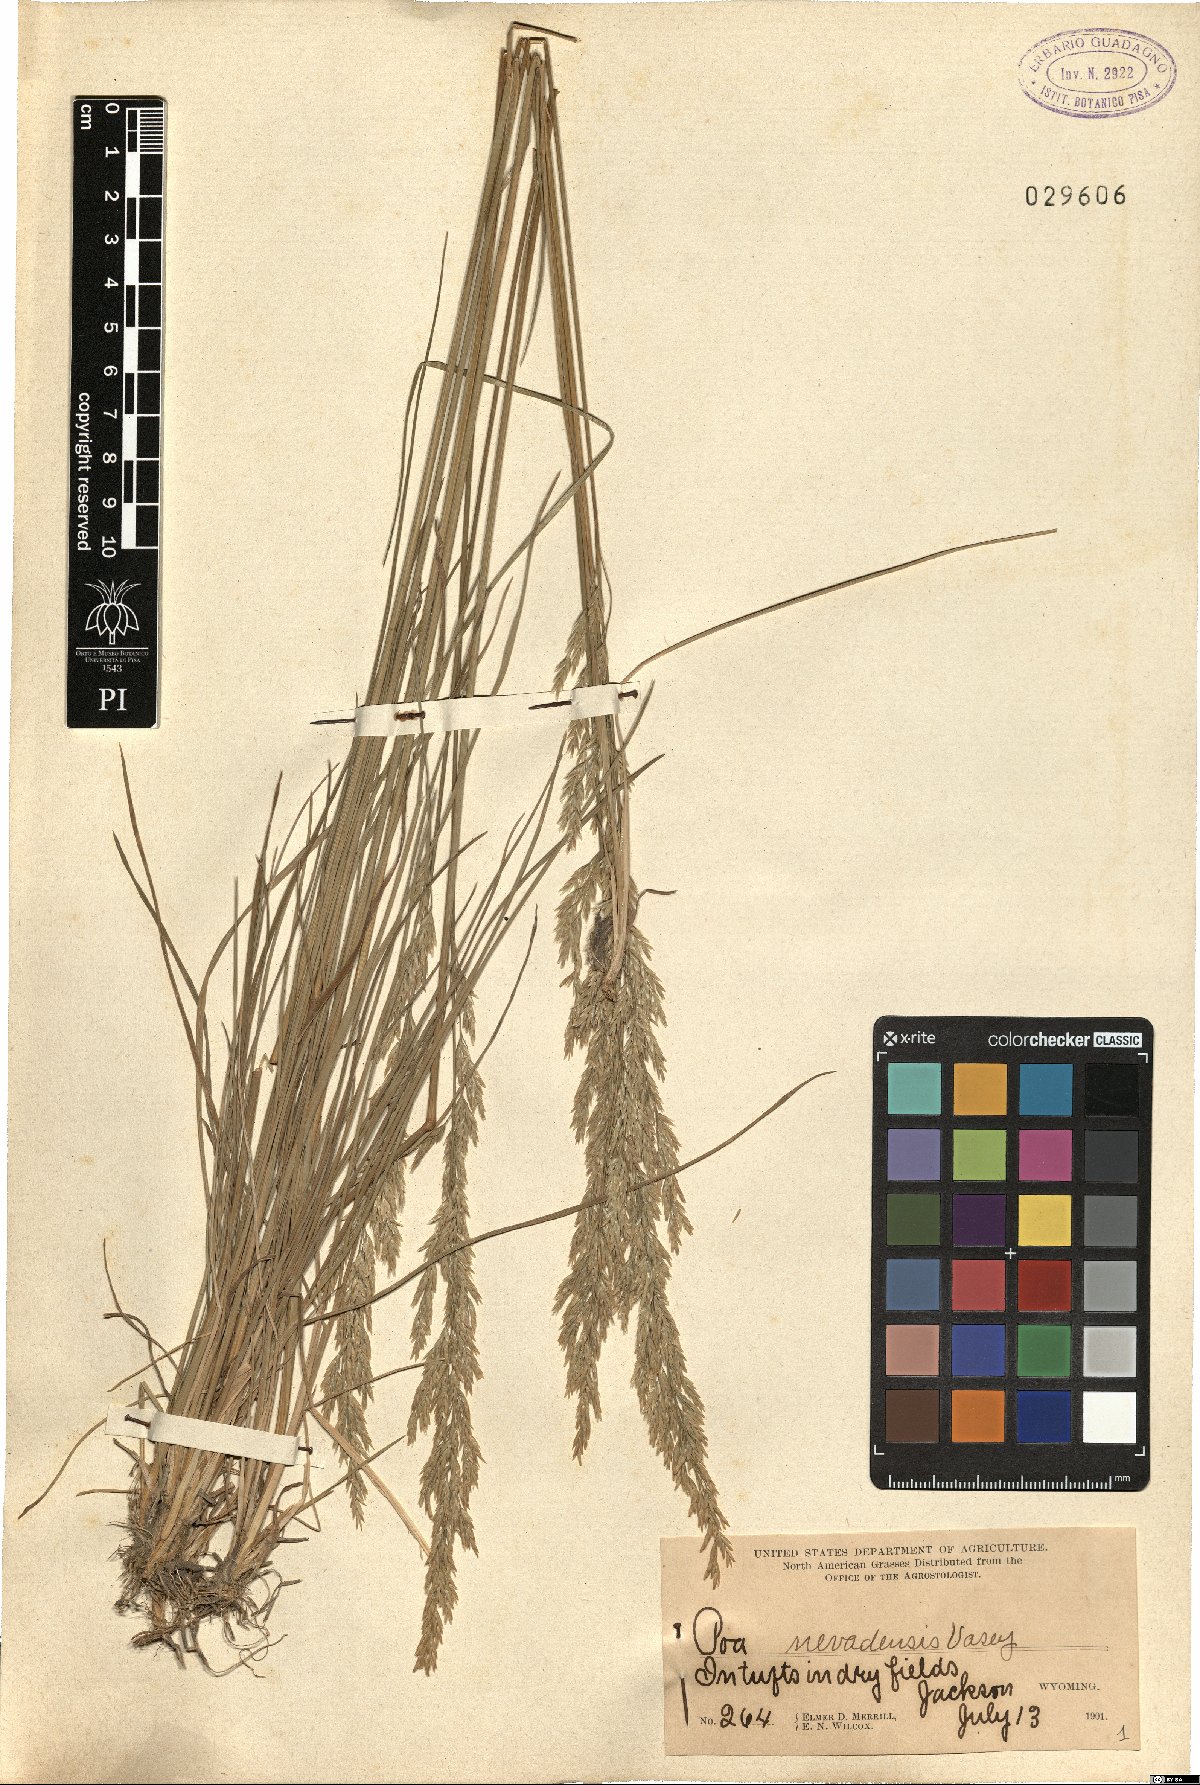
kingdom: Plantae
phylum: Tracheophyta
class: Liliopsida
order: Poales
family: Poaceae
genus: Poa
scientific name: Poa secunda
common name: Sandberg bluegrass
